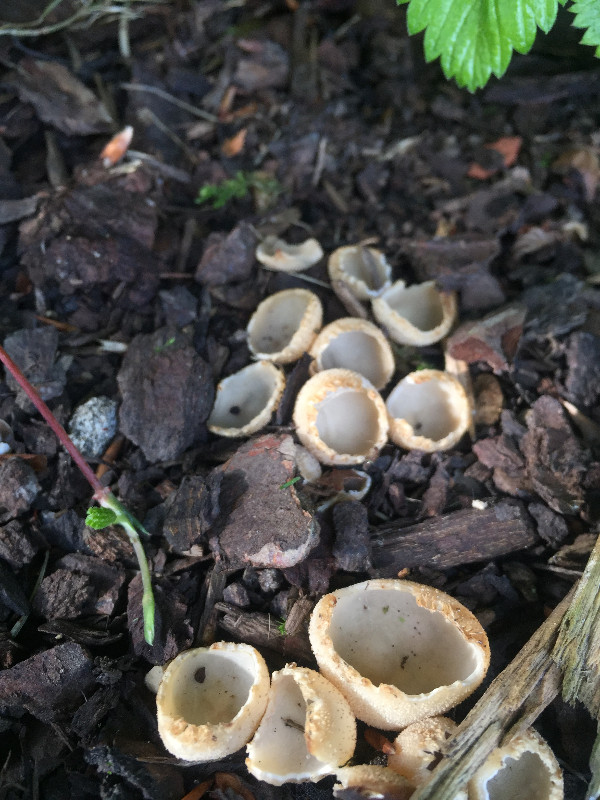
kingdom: Fungi
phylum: Ascomycota
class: Pezizomycetes
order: Pezizales
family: Pyronemataceae
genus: Tarzetta
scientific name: Tarzetta cupularis
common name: gulbrun pokalbæger
